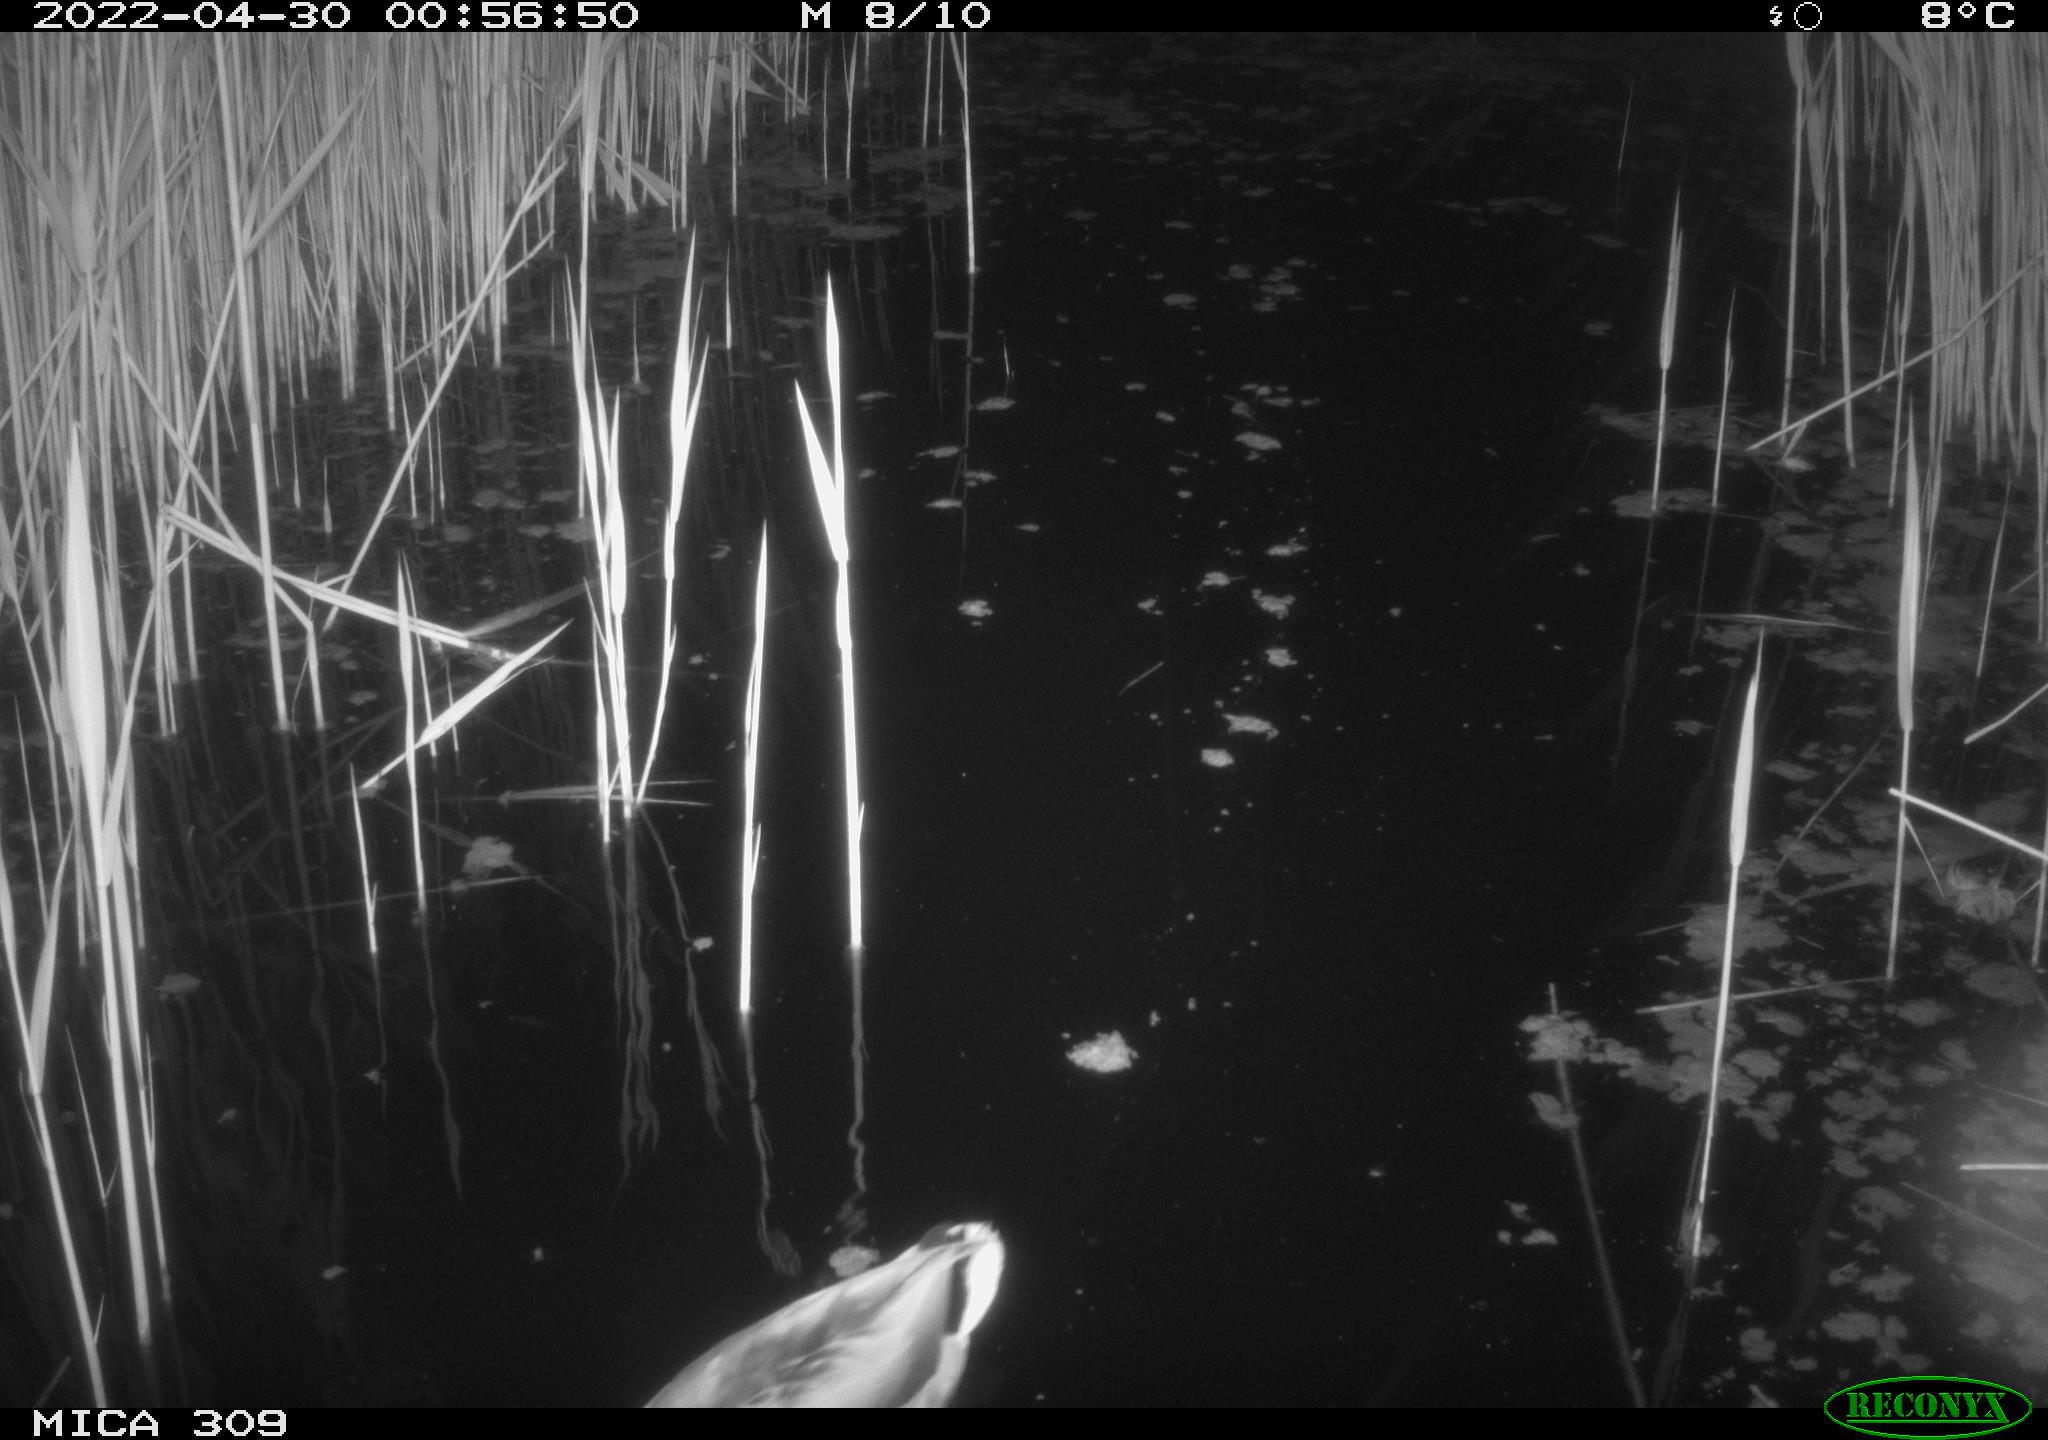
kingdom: Animalia
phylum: Chordata
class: Aves
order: Anseriformes
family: Anatidae
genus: Anas
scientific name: Anas platyrhynchos
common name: Mallard
